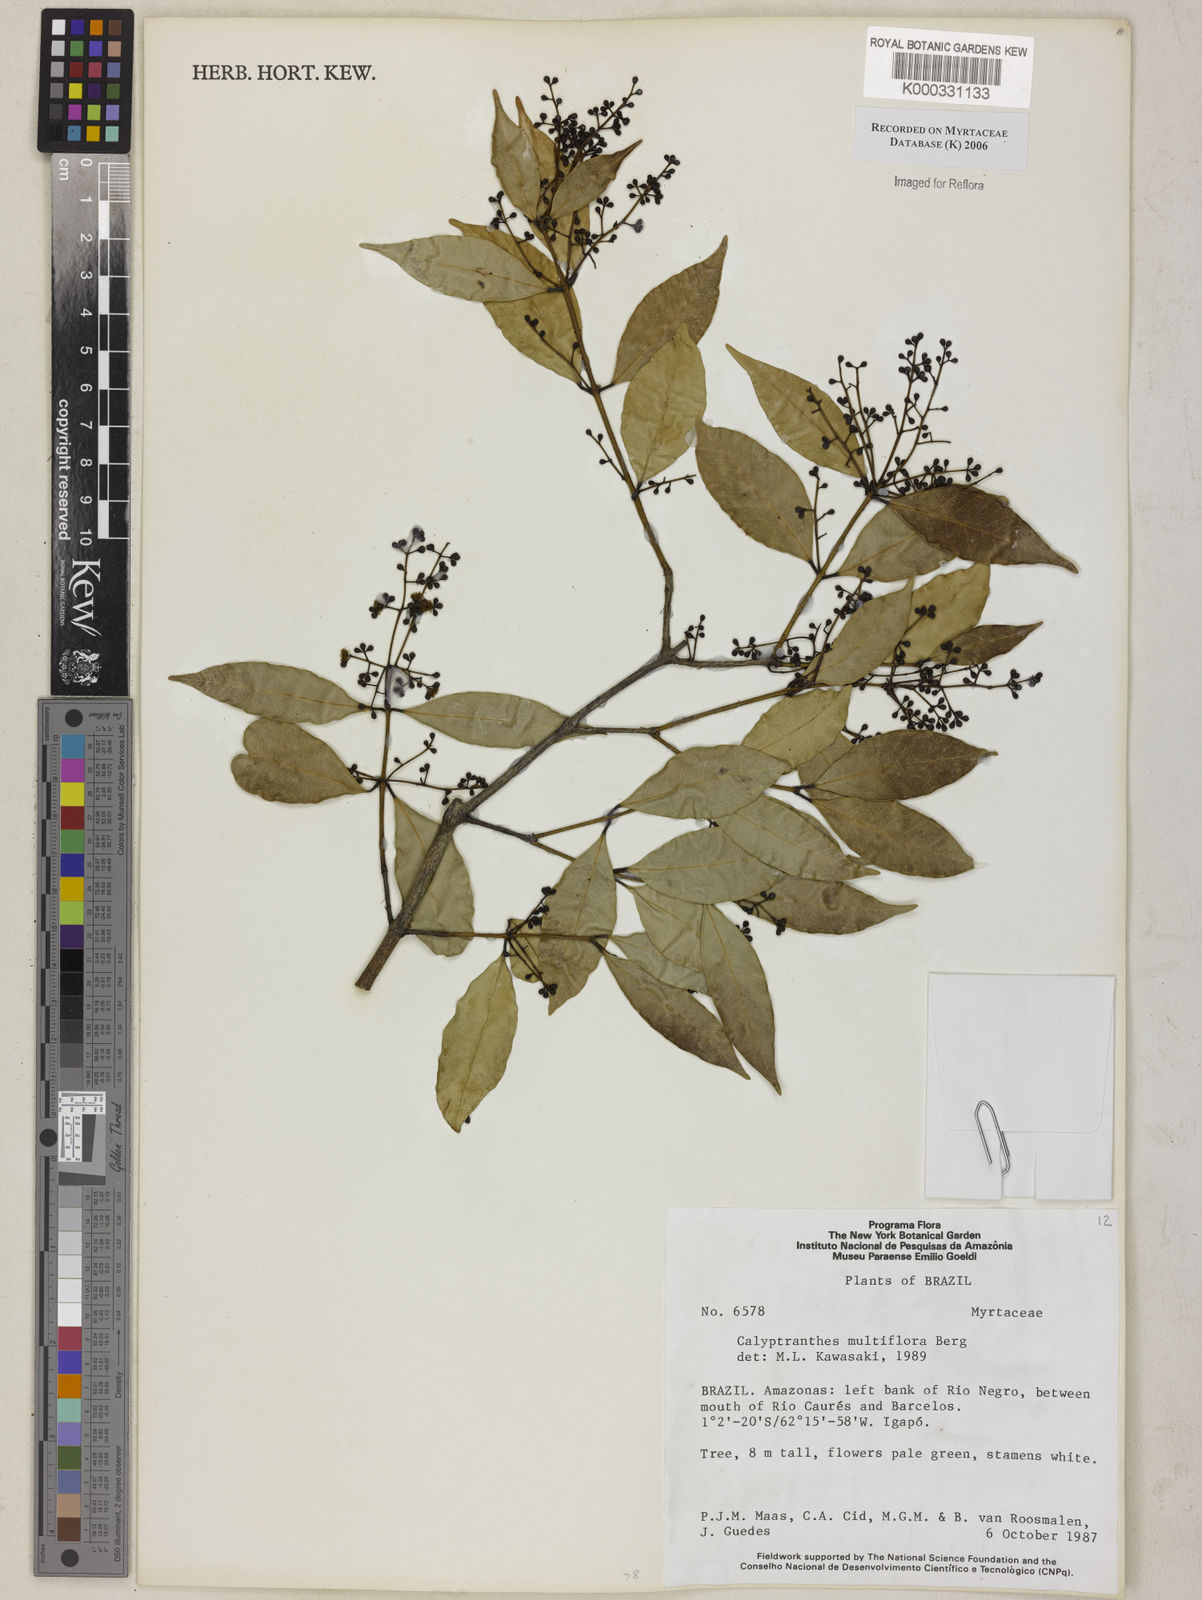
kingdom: Plantae
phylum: Tracheophyta
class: Magnoliopsida
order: Myrtales
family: Myrtaceae
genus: Myrcia
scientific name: Myrcia aulomyrcioides
